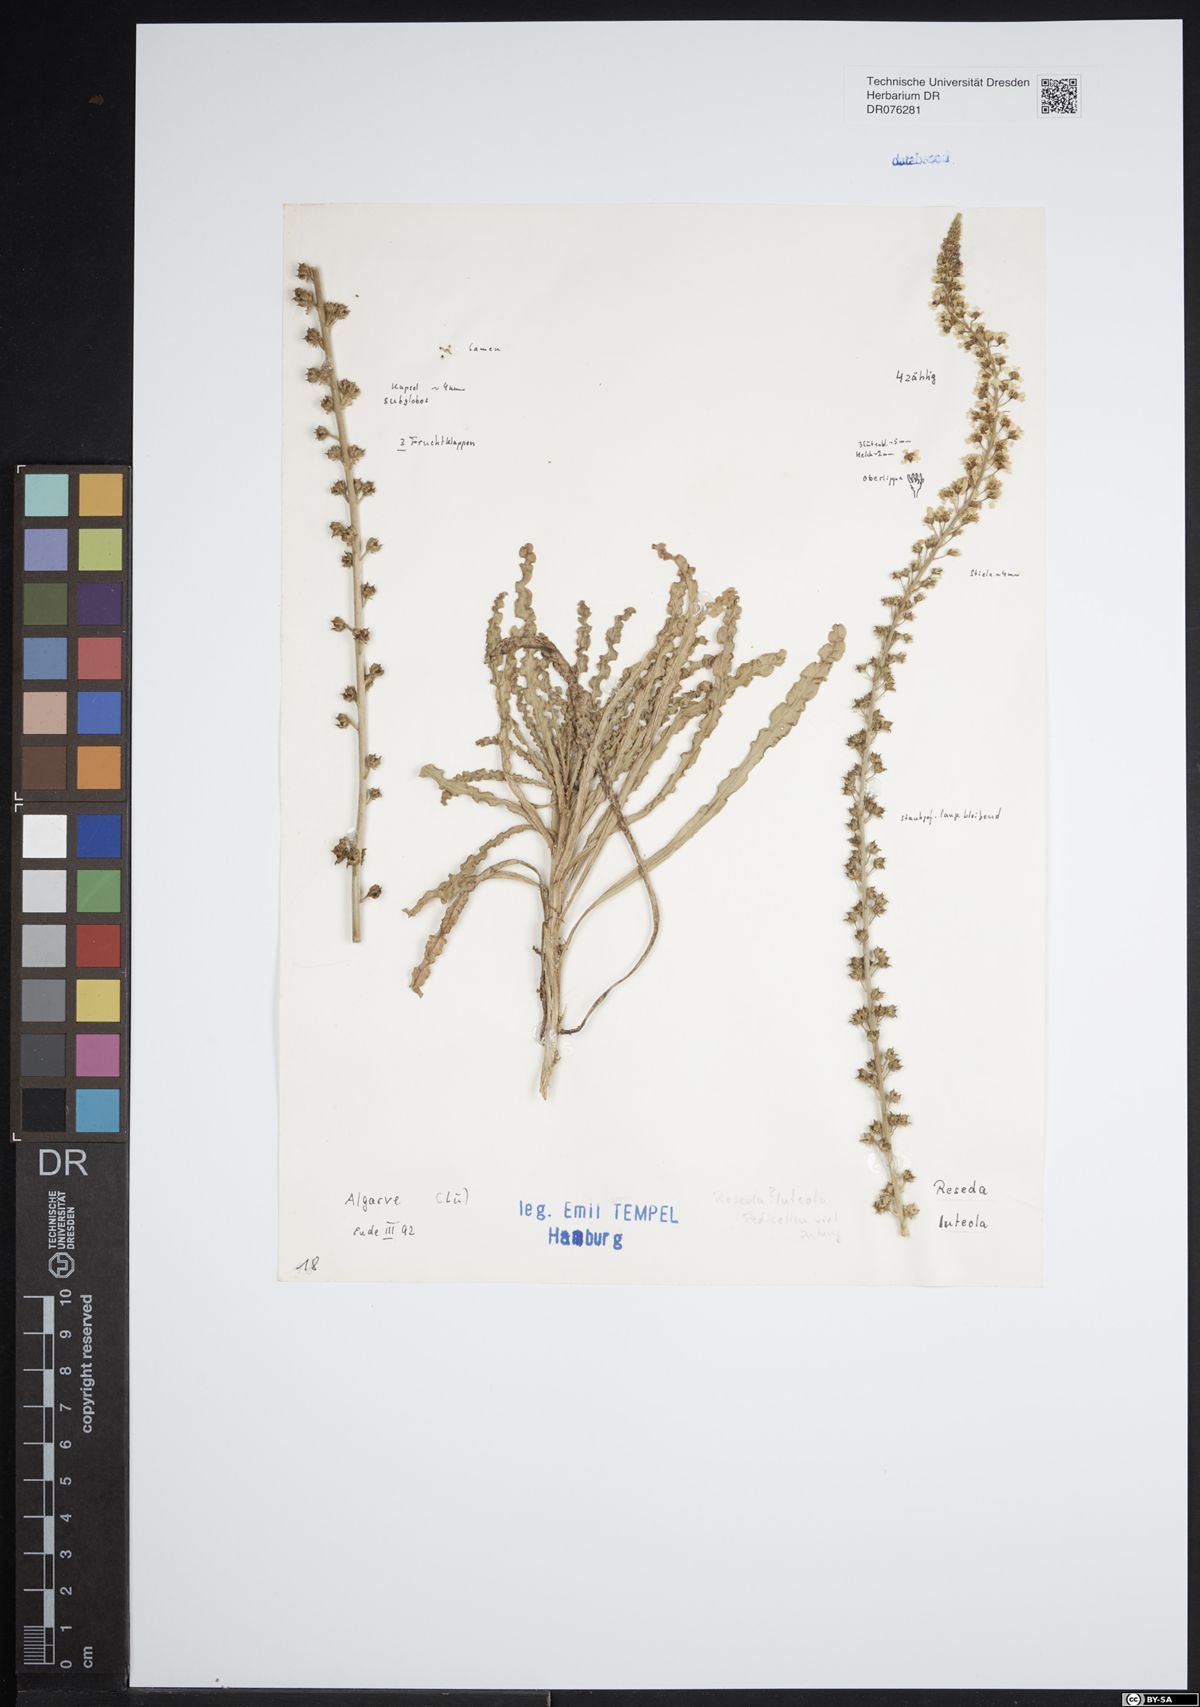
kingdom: Plantae
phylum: Tracheophyta
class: Magnoliopsida
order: Brassicales
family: Resedaceae
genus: Reseda
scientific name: Reseda luteola
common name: Weld
